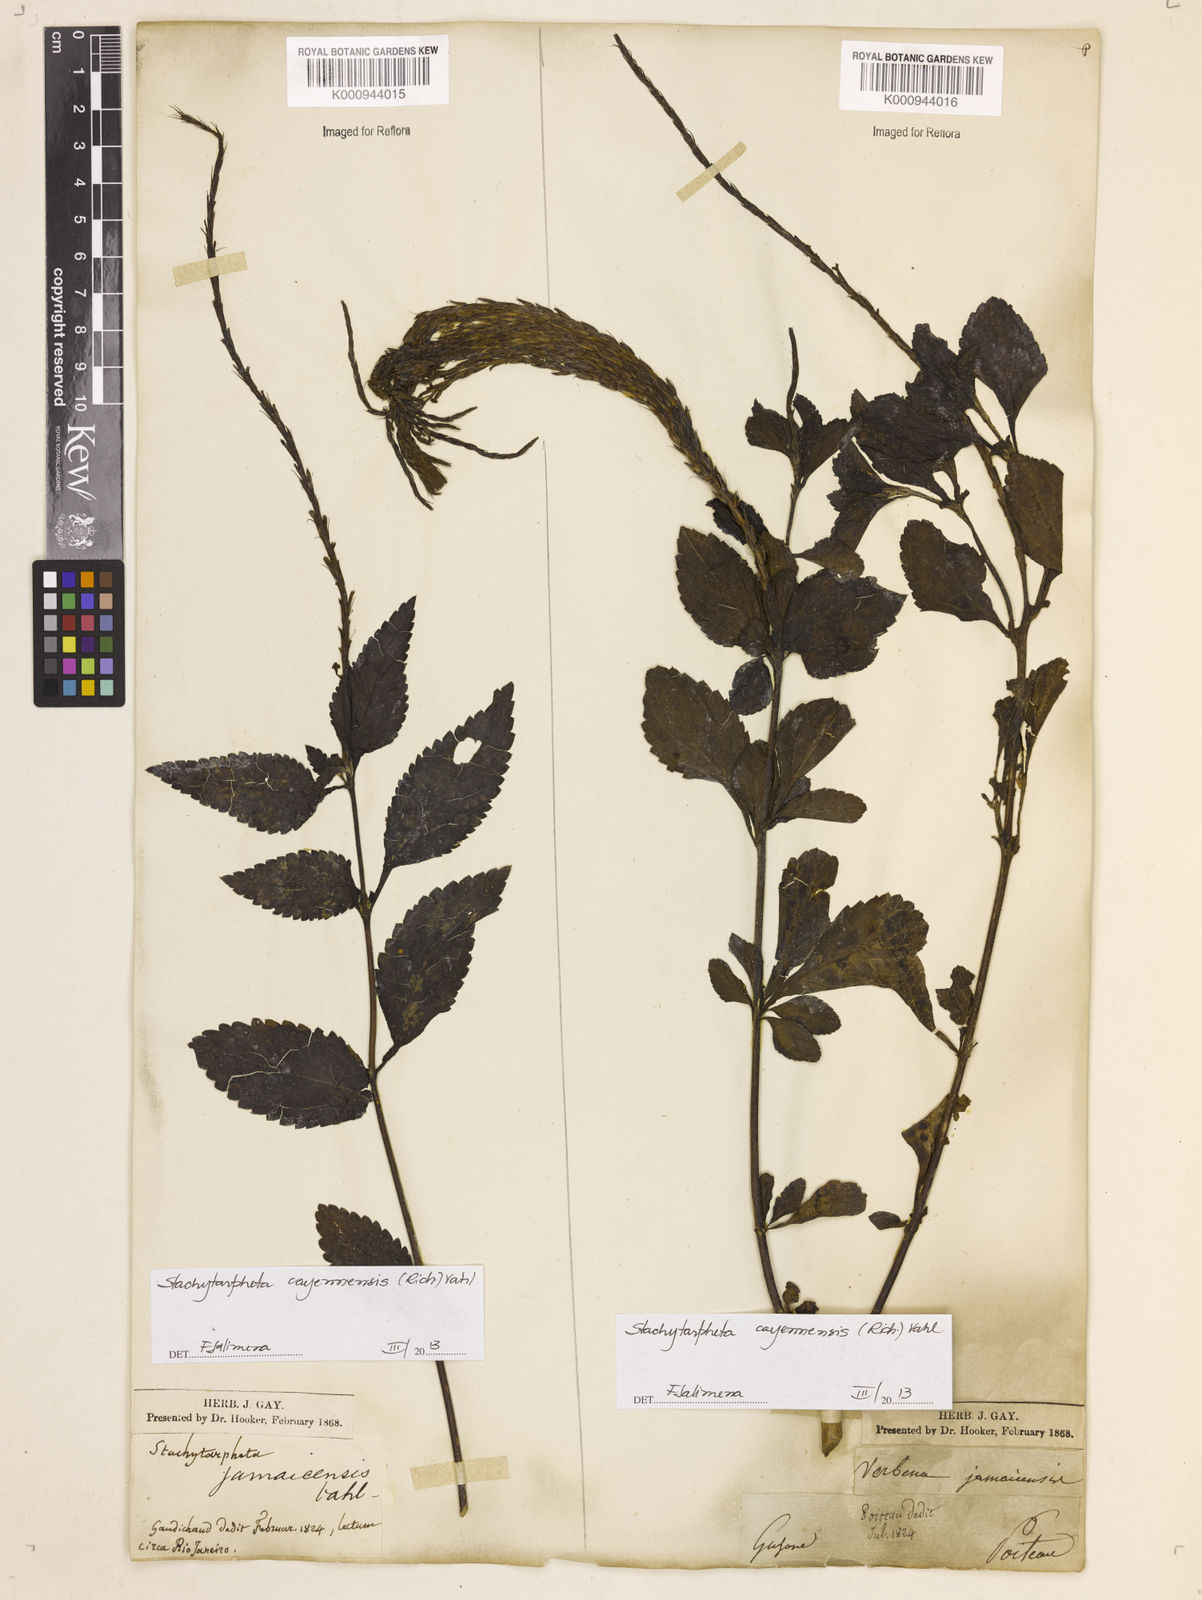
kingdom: Plantae
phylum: Tracheophyta
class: Magnoliopsida
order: Lamiales
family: Verbenaceae
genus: Aloysia
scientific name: Aloysia
